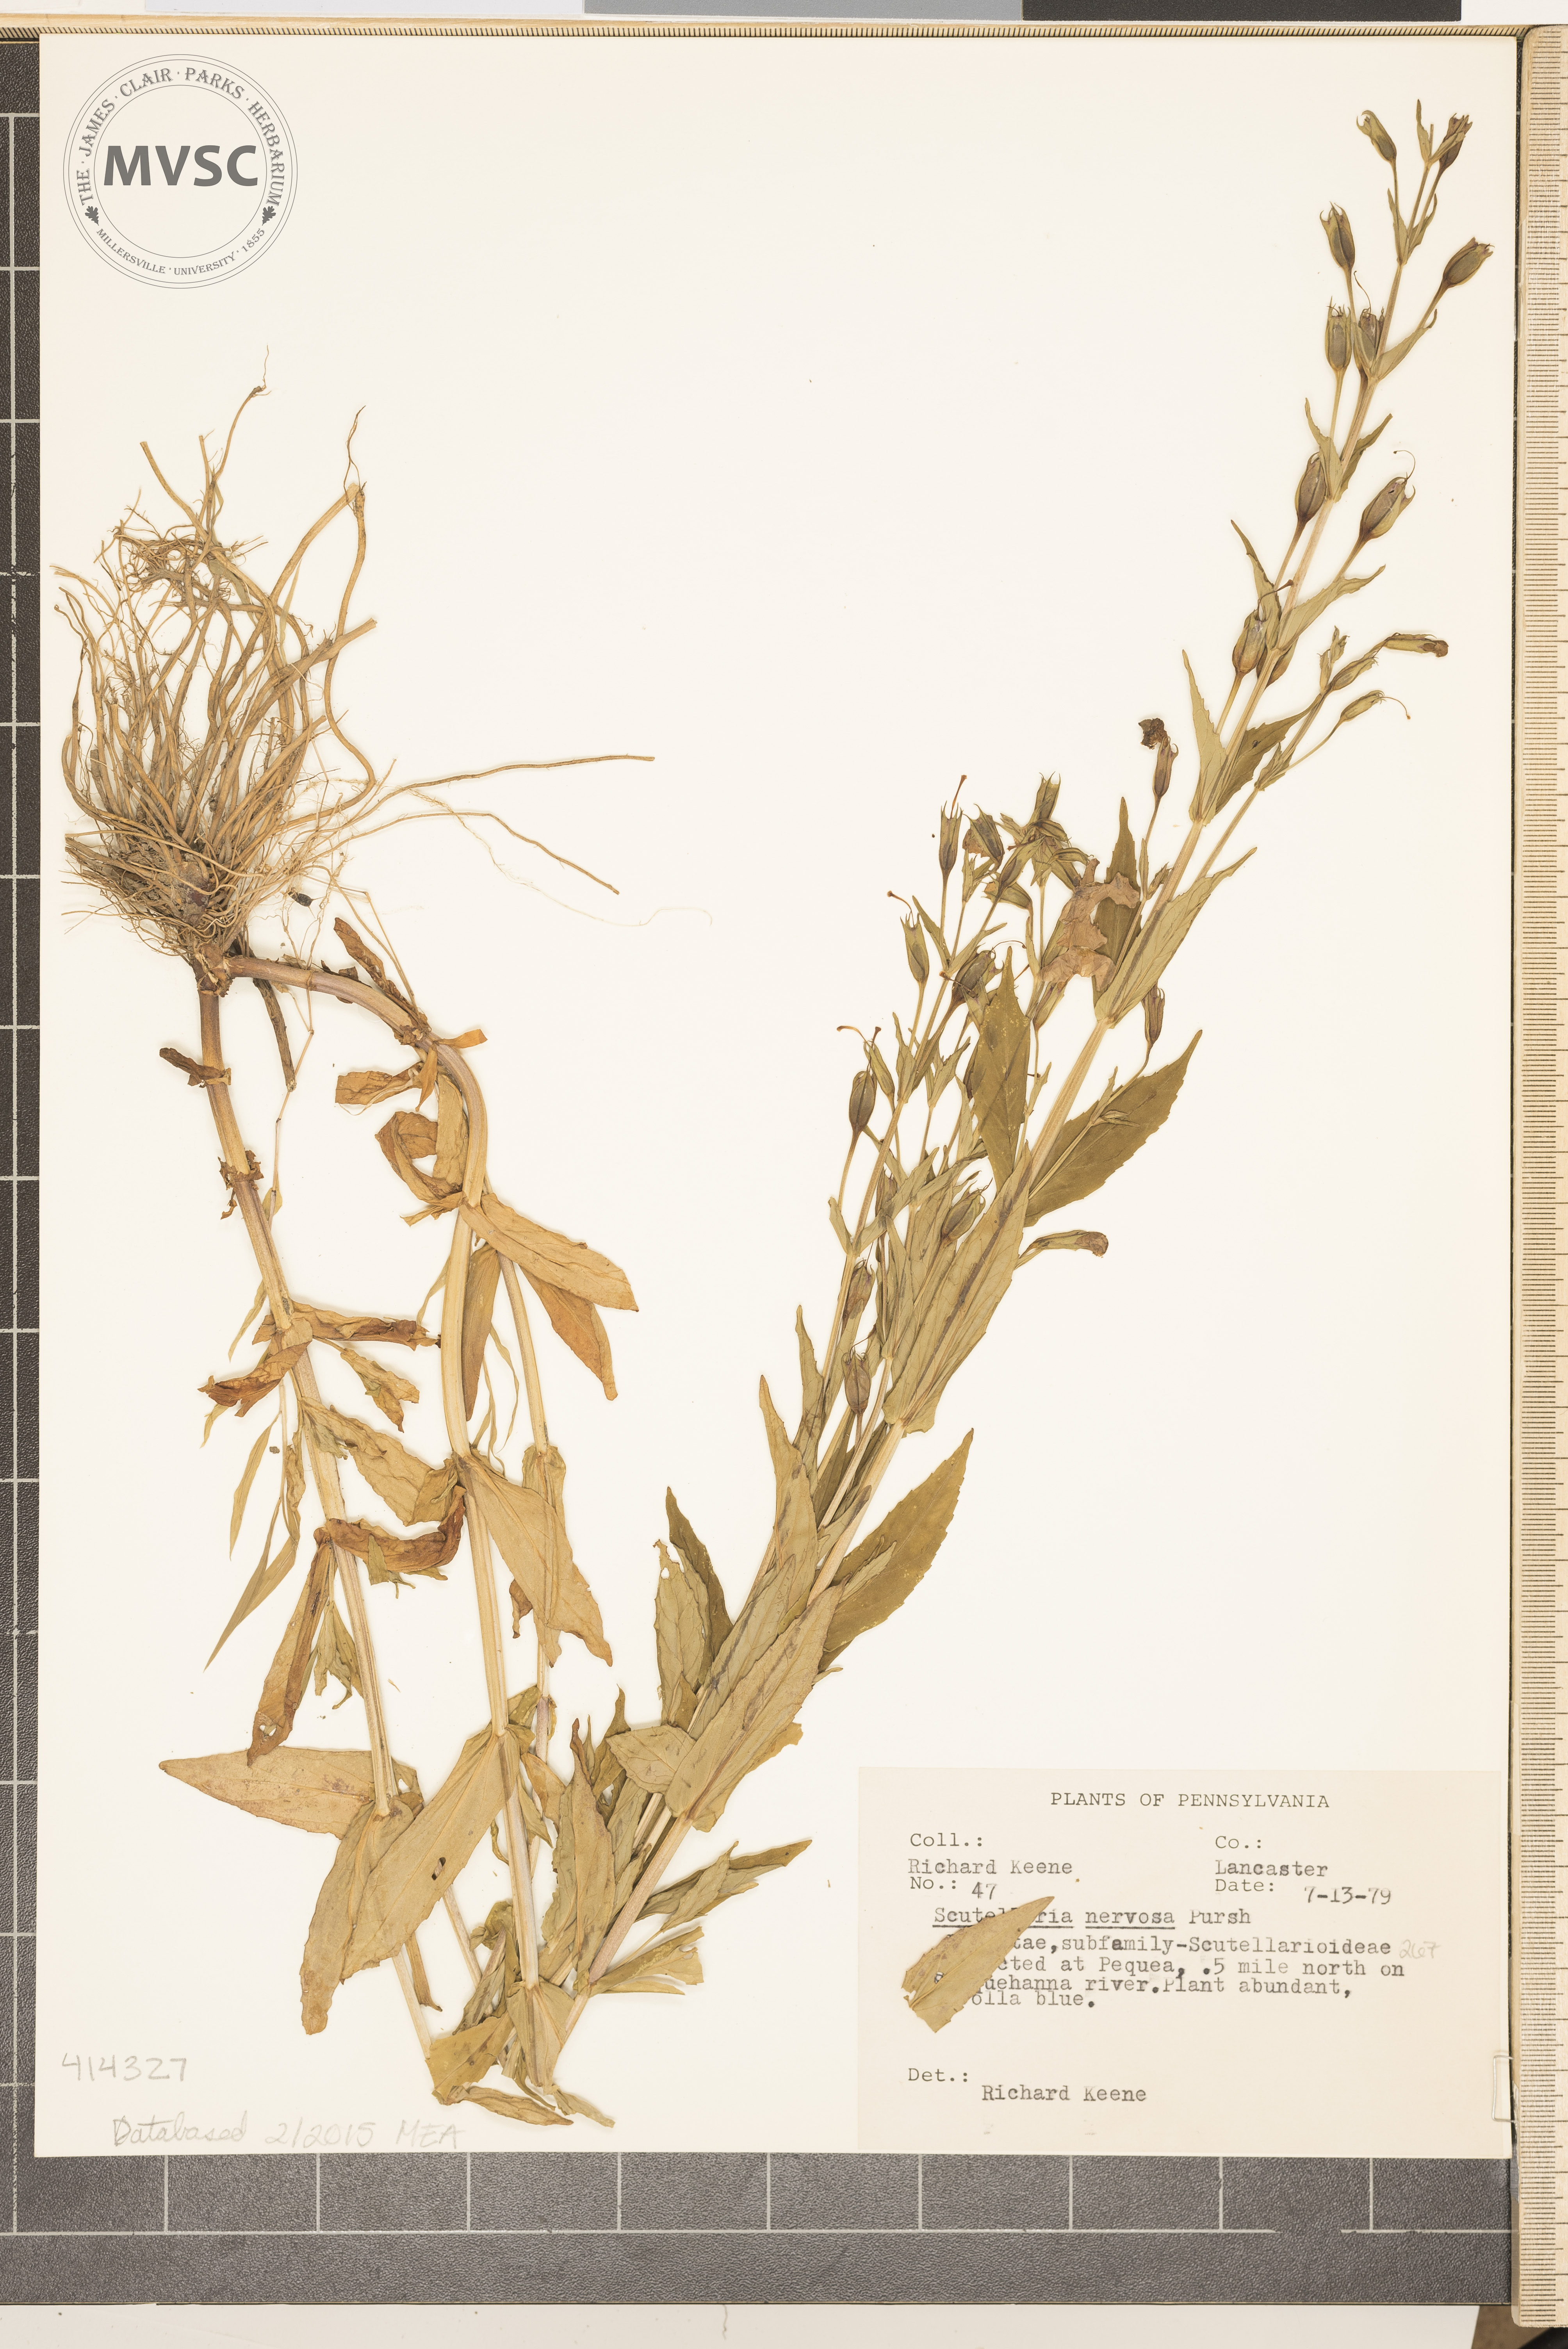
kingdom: Plantae
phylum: Tracheophyta
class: Magnoliopsida
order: Lamiales
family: Lamiaceae
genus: Scutellaria
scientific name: Scutellaria nervosa
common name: Veiny Skullcap
